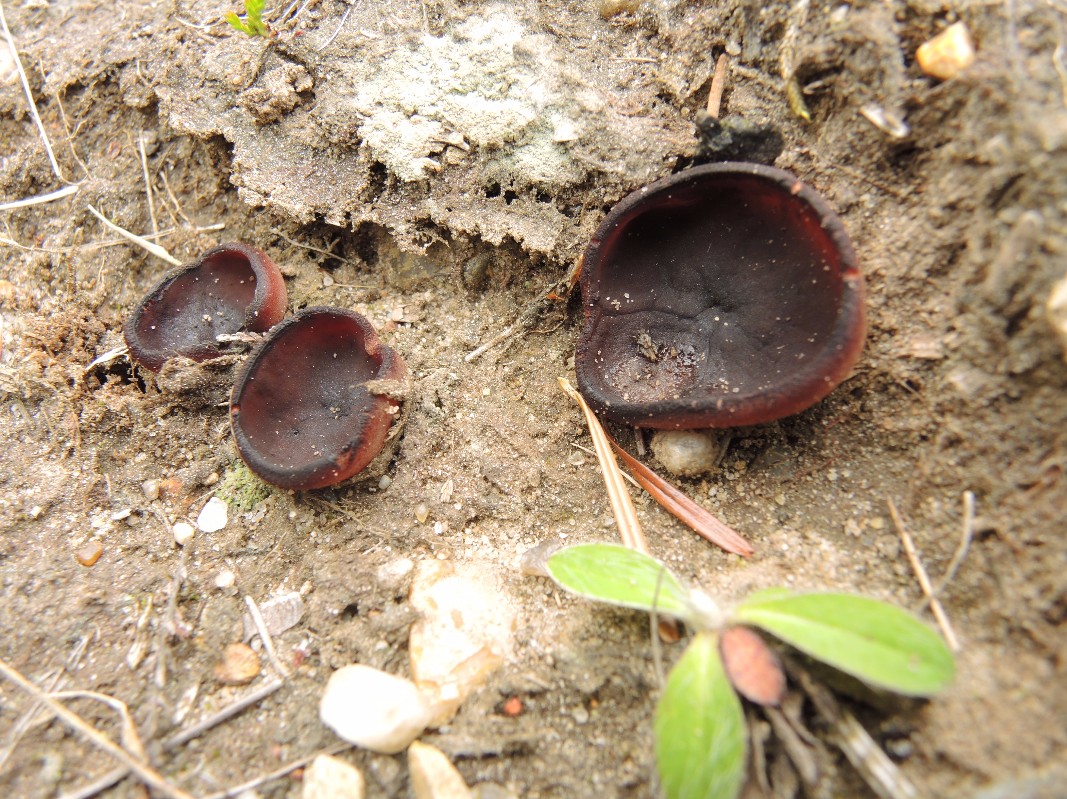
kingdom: Fungi
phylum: Ascomycota
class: Pezizomycetes
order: Pezizales
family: Pezizaceae
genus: Legaliana
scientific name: Legaliana badia
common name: leverbrun bægersvamp
